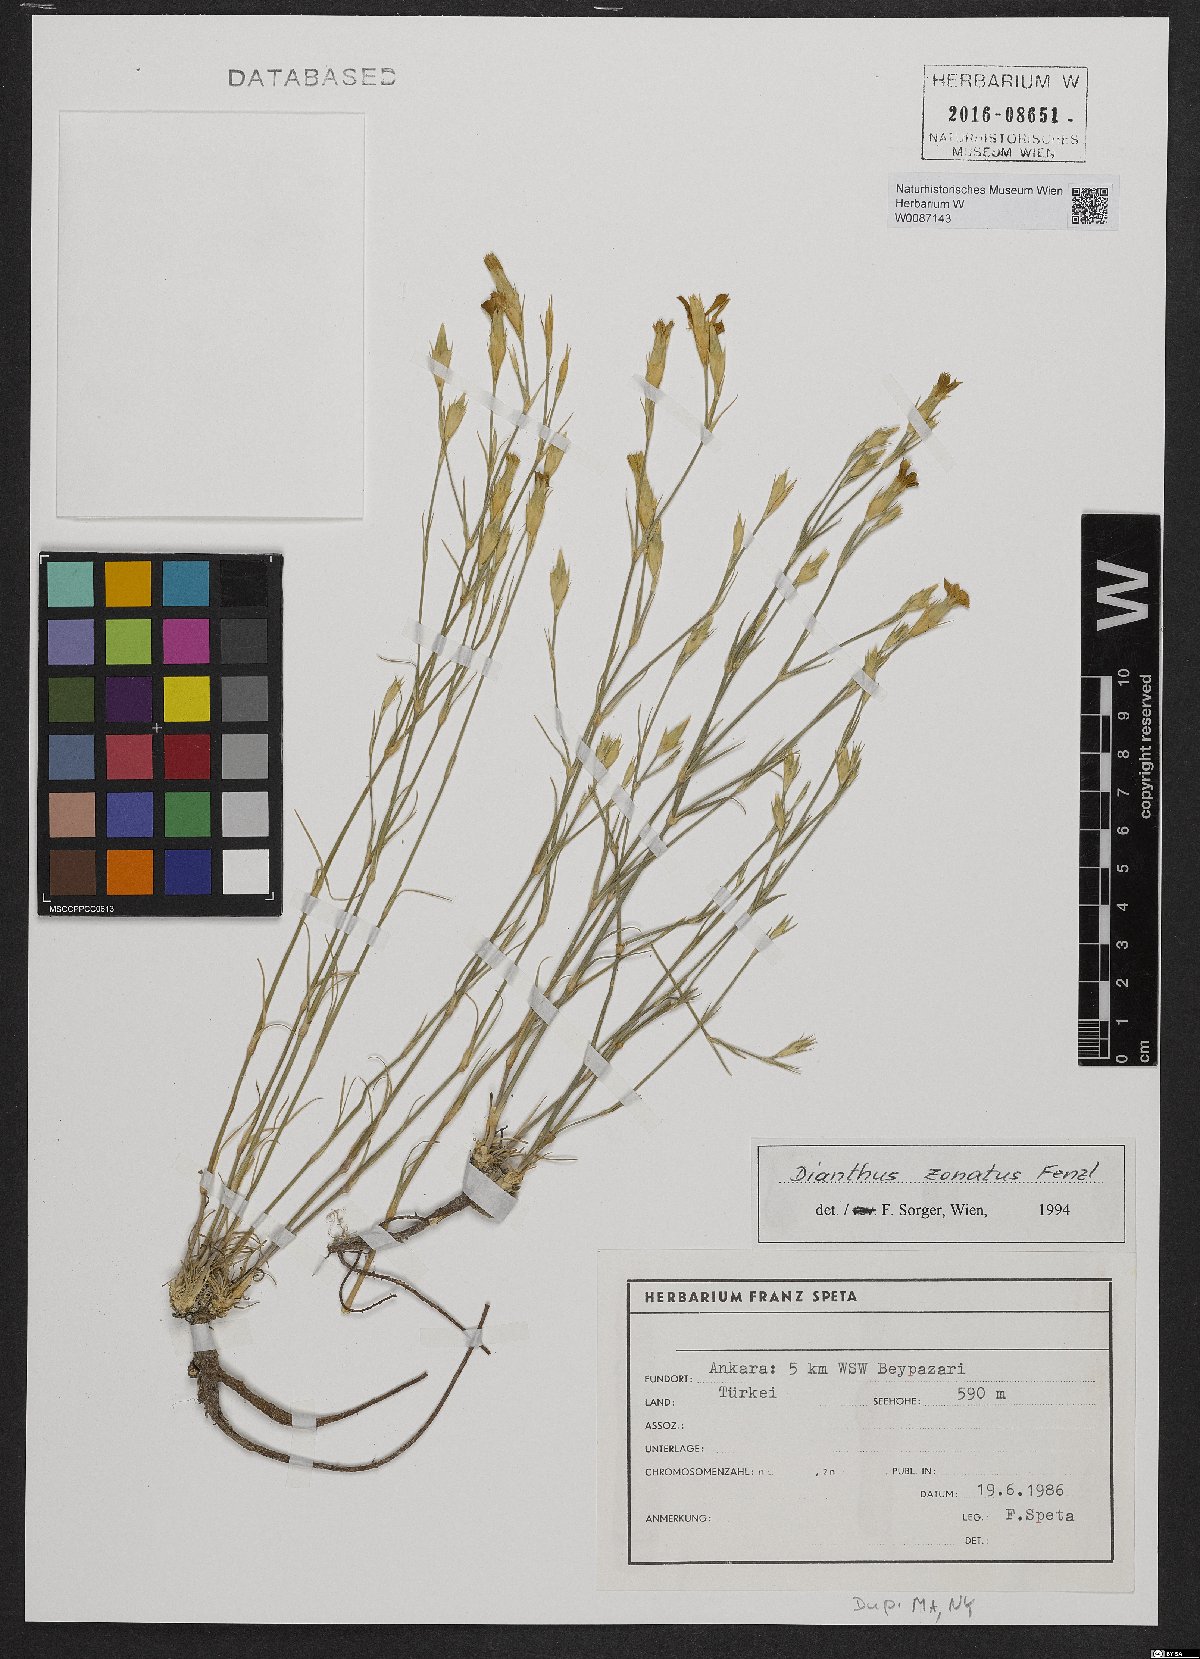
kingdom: Plantae
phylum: Tracheophyta
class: Magnoliopsida
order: Caryophyllales
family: Caryophyllaceae
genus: Dianthus
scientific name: Dianthus zonatus
